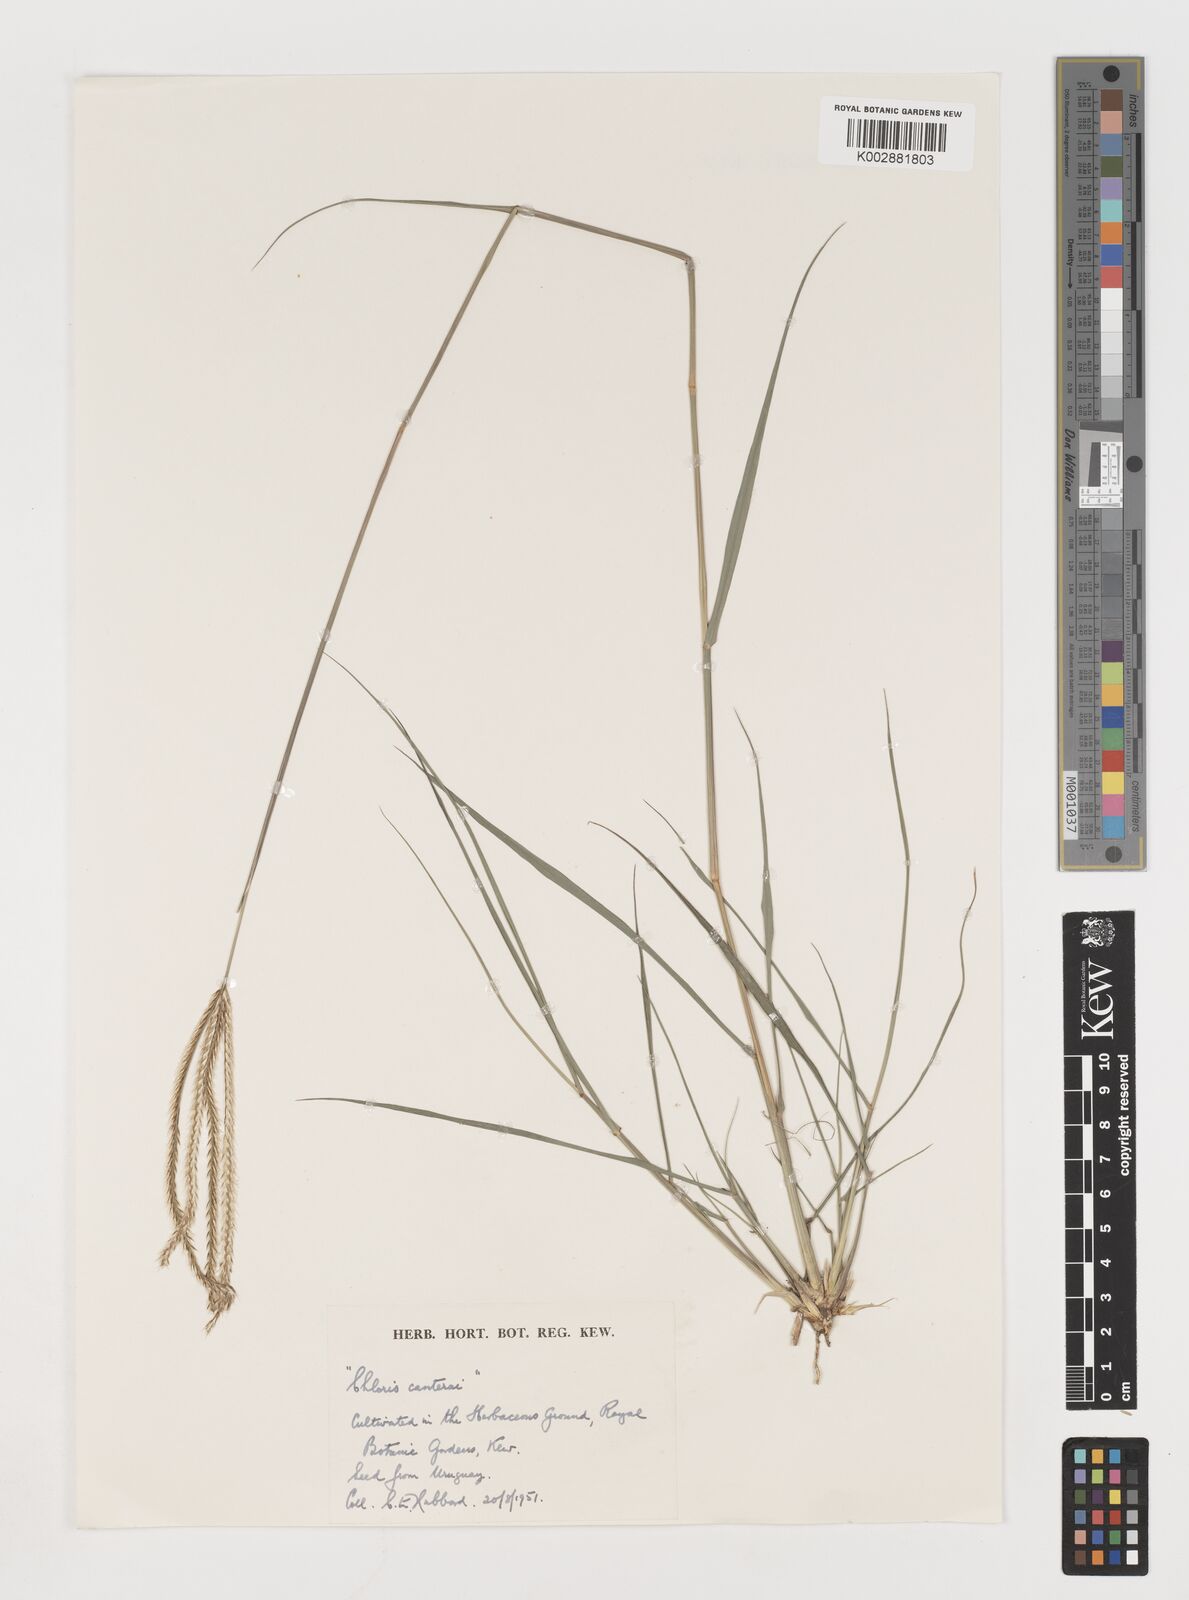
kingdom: Plantae
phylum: Tracheophyta
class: Liliopsida
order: Poales
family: Poaceae
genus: Chloris
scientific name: Chloris
